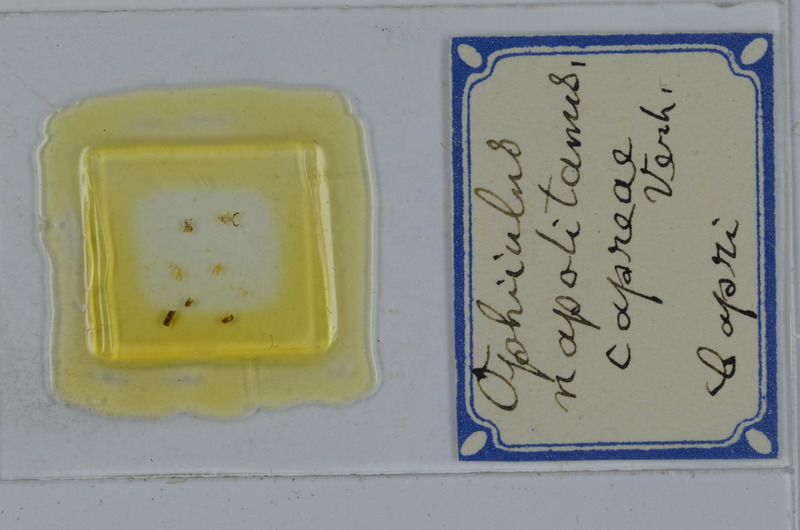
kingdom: Animalia
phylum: Arthropoda
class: Diplopoda
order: Julida
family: Julidae
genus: Ophyiulus
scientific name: Ophyiulus napolitanus
